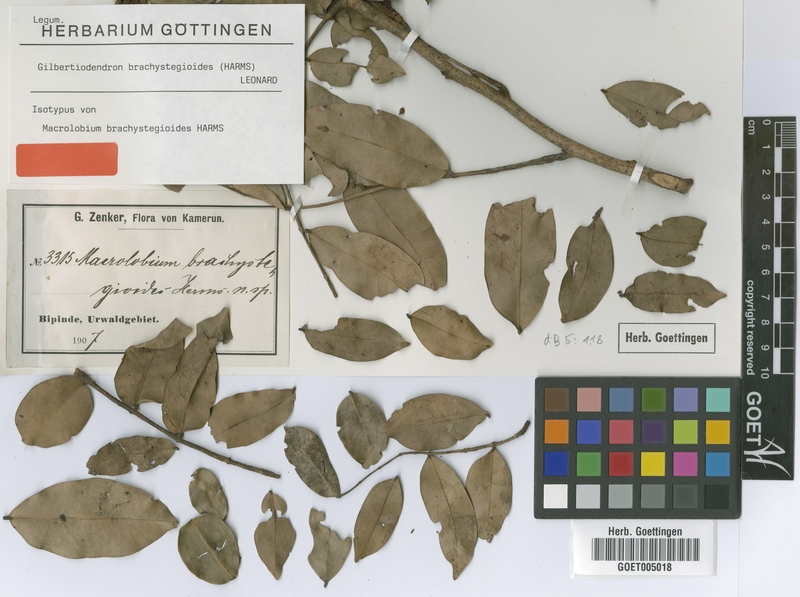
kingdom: Plantae
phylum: Tracheophyta
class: Magnoliopsida
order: Fabales
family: Fabaceae
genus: Gilbertiodendron
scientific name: Gilbertiodendron brachystegioides
